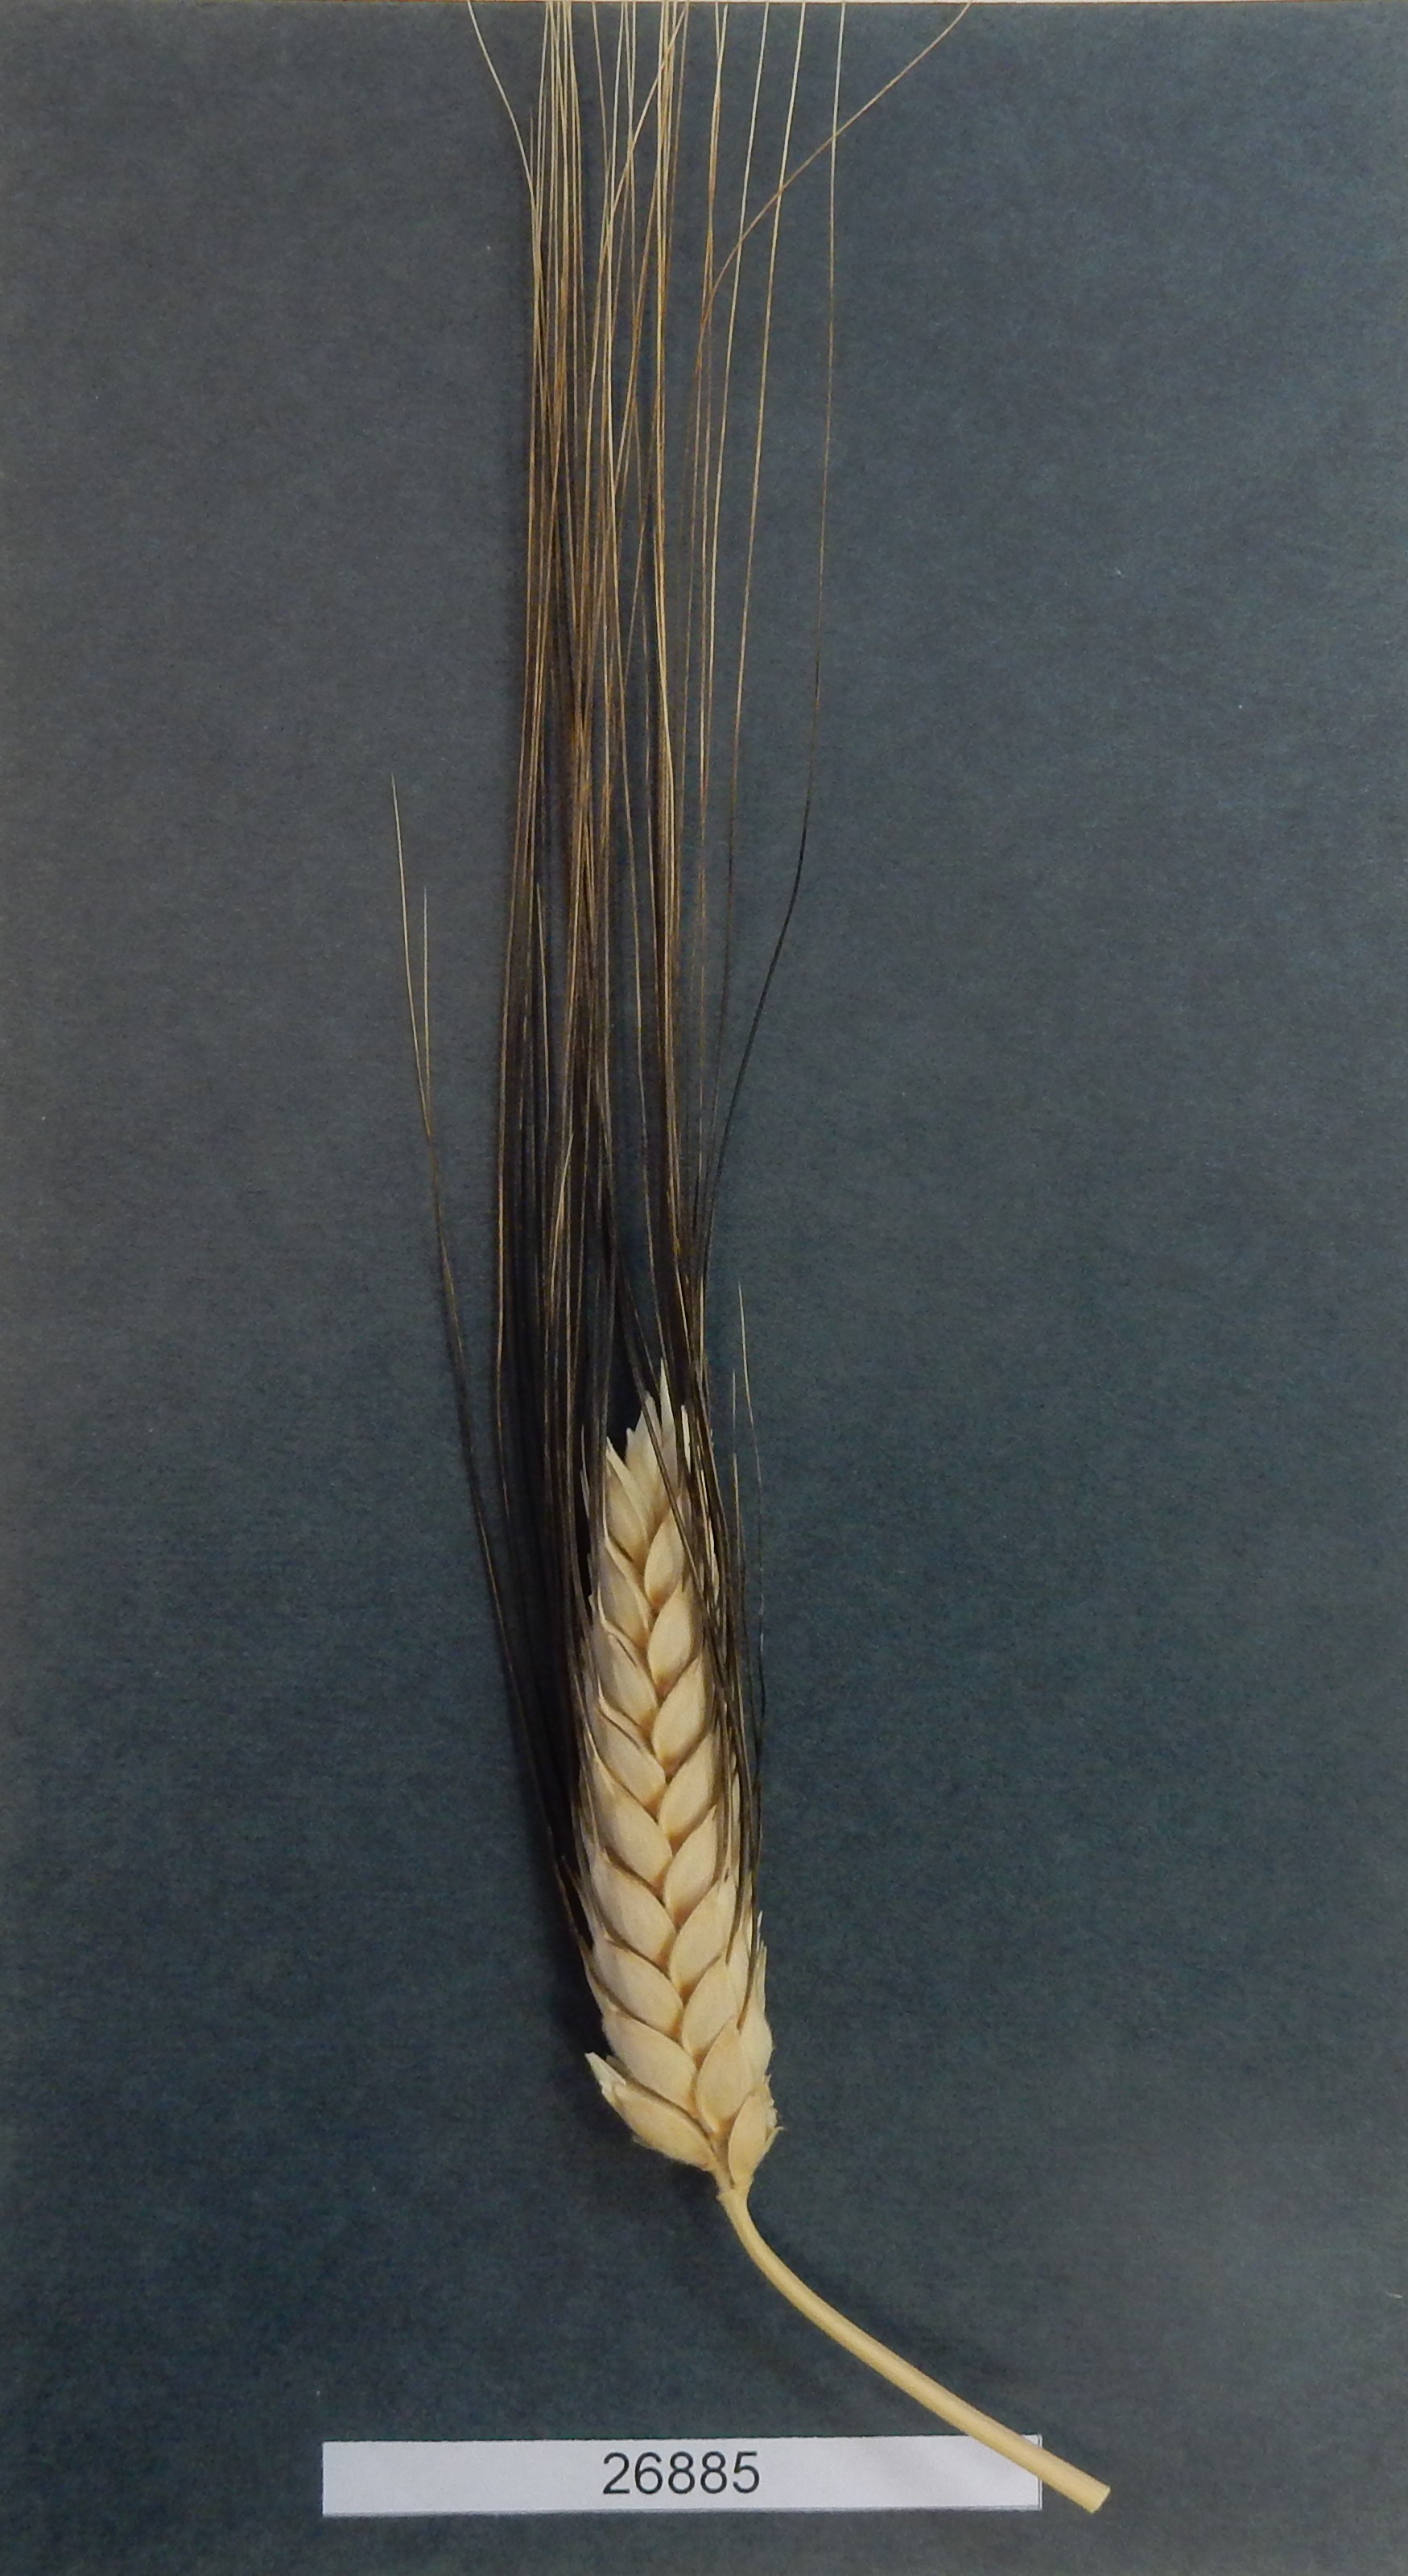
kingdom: Plantae
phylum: Tracheophyta
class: Liliopsida
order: Poales
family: Poaceae
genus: Triticum
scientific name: Triticum
